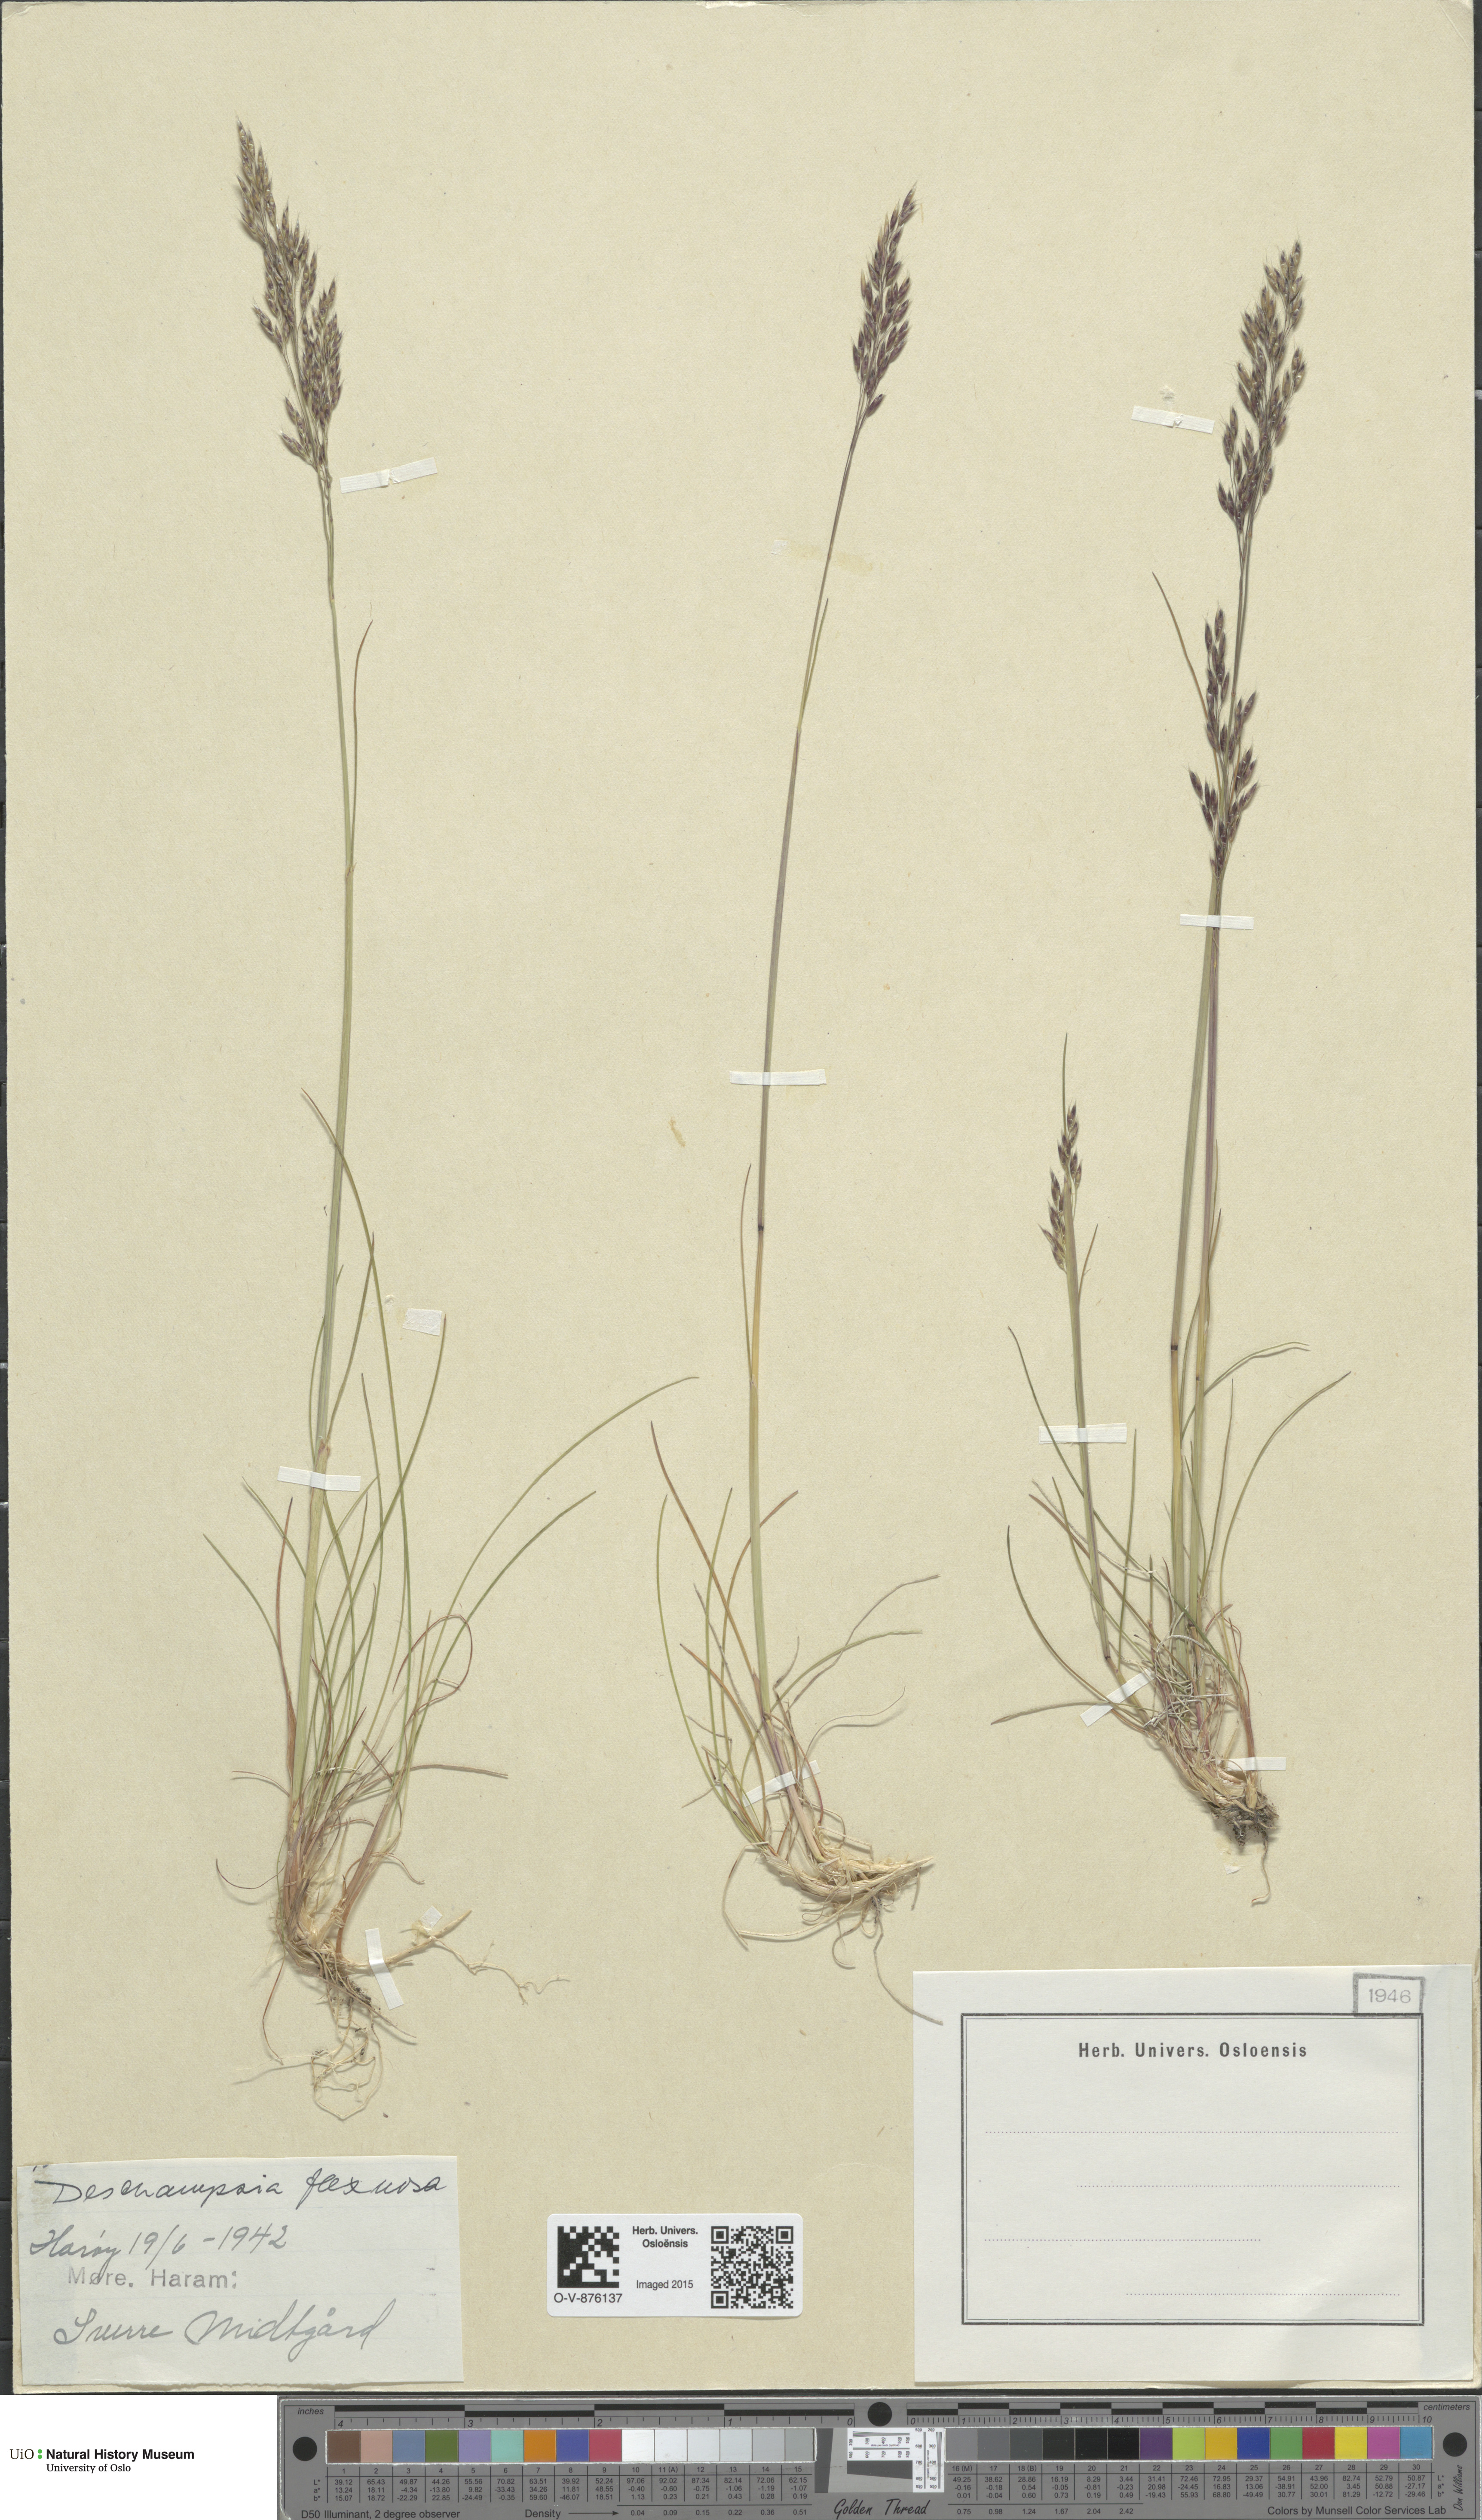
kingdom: Plantae
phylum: Tracheophyta
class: Liliopsida
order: Poales
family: Poaceae
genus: Avenella
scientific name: Avenella flexuosa
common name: Wavy hairgrass
